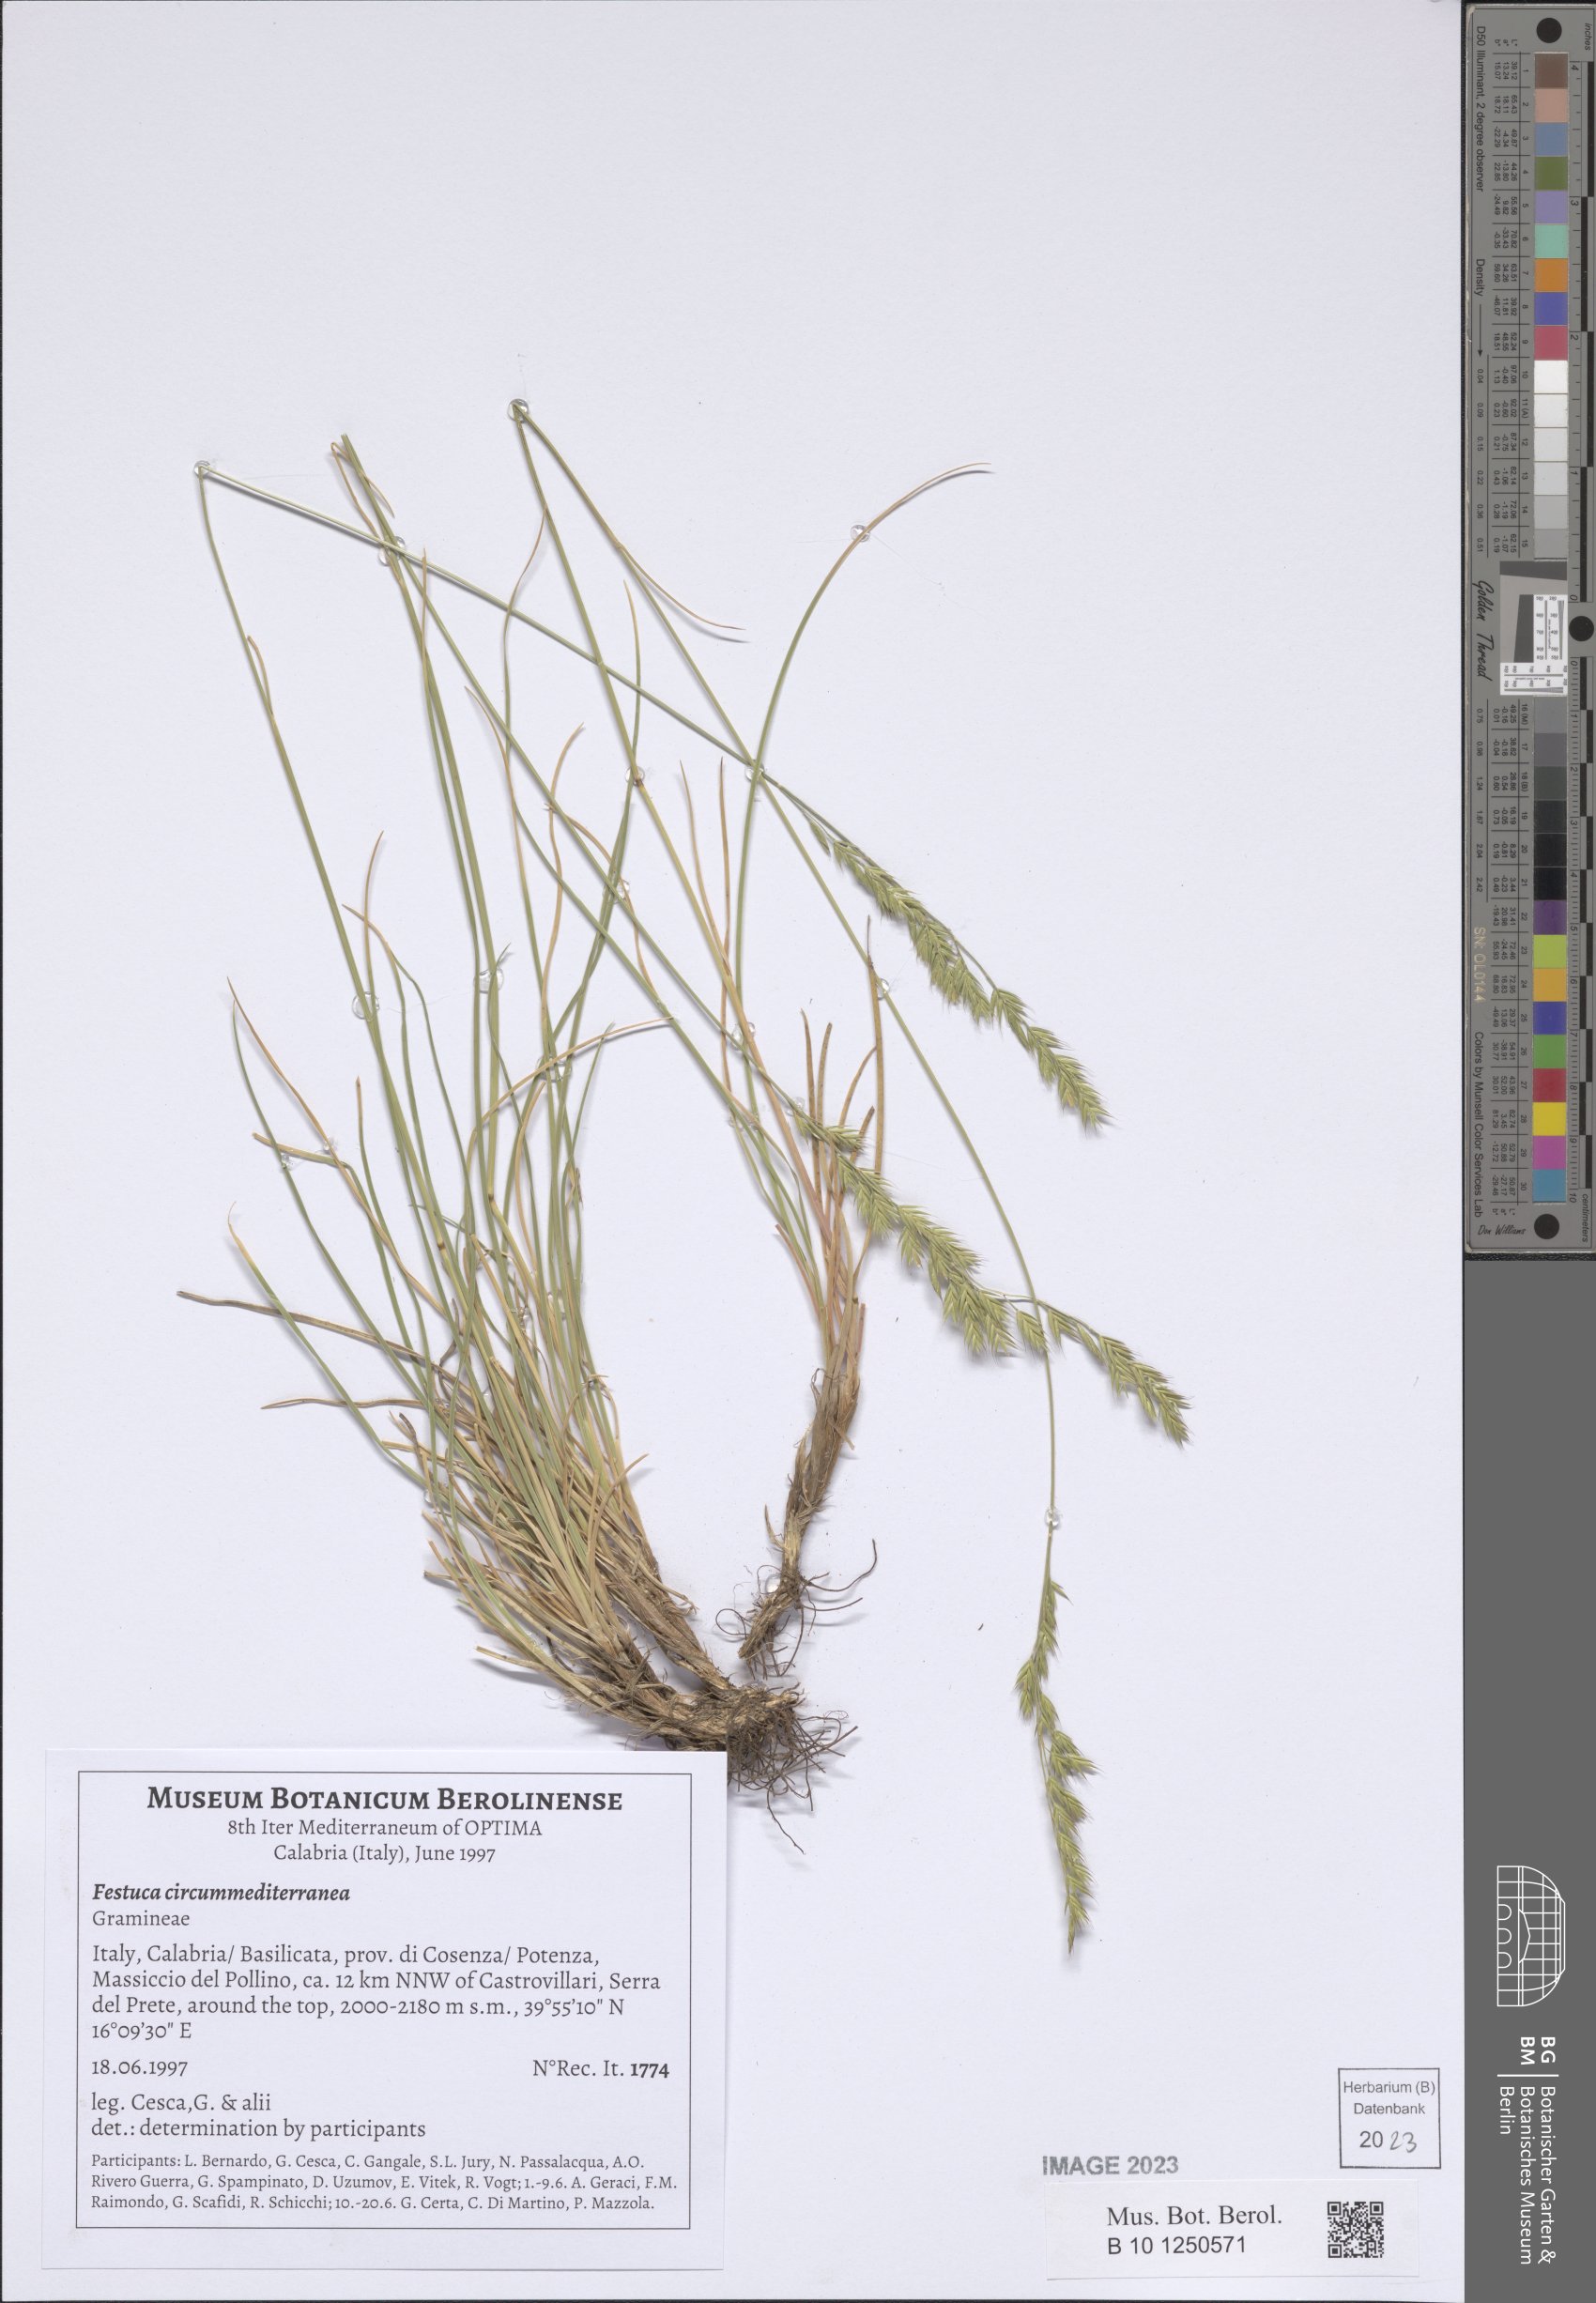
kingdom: Plantae
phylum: Tracheophyta
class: Liliopsida
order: Poales
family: Poaceae
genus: Festuca
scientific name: Festuca circummediterranea
